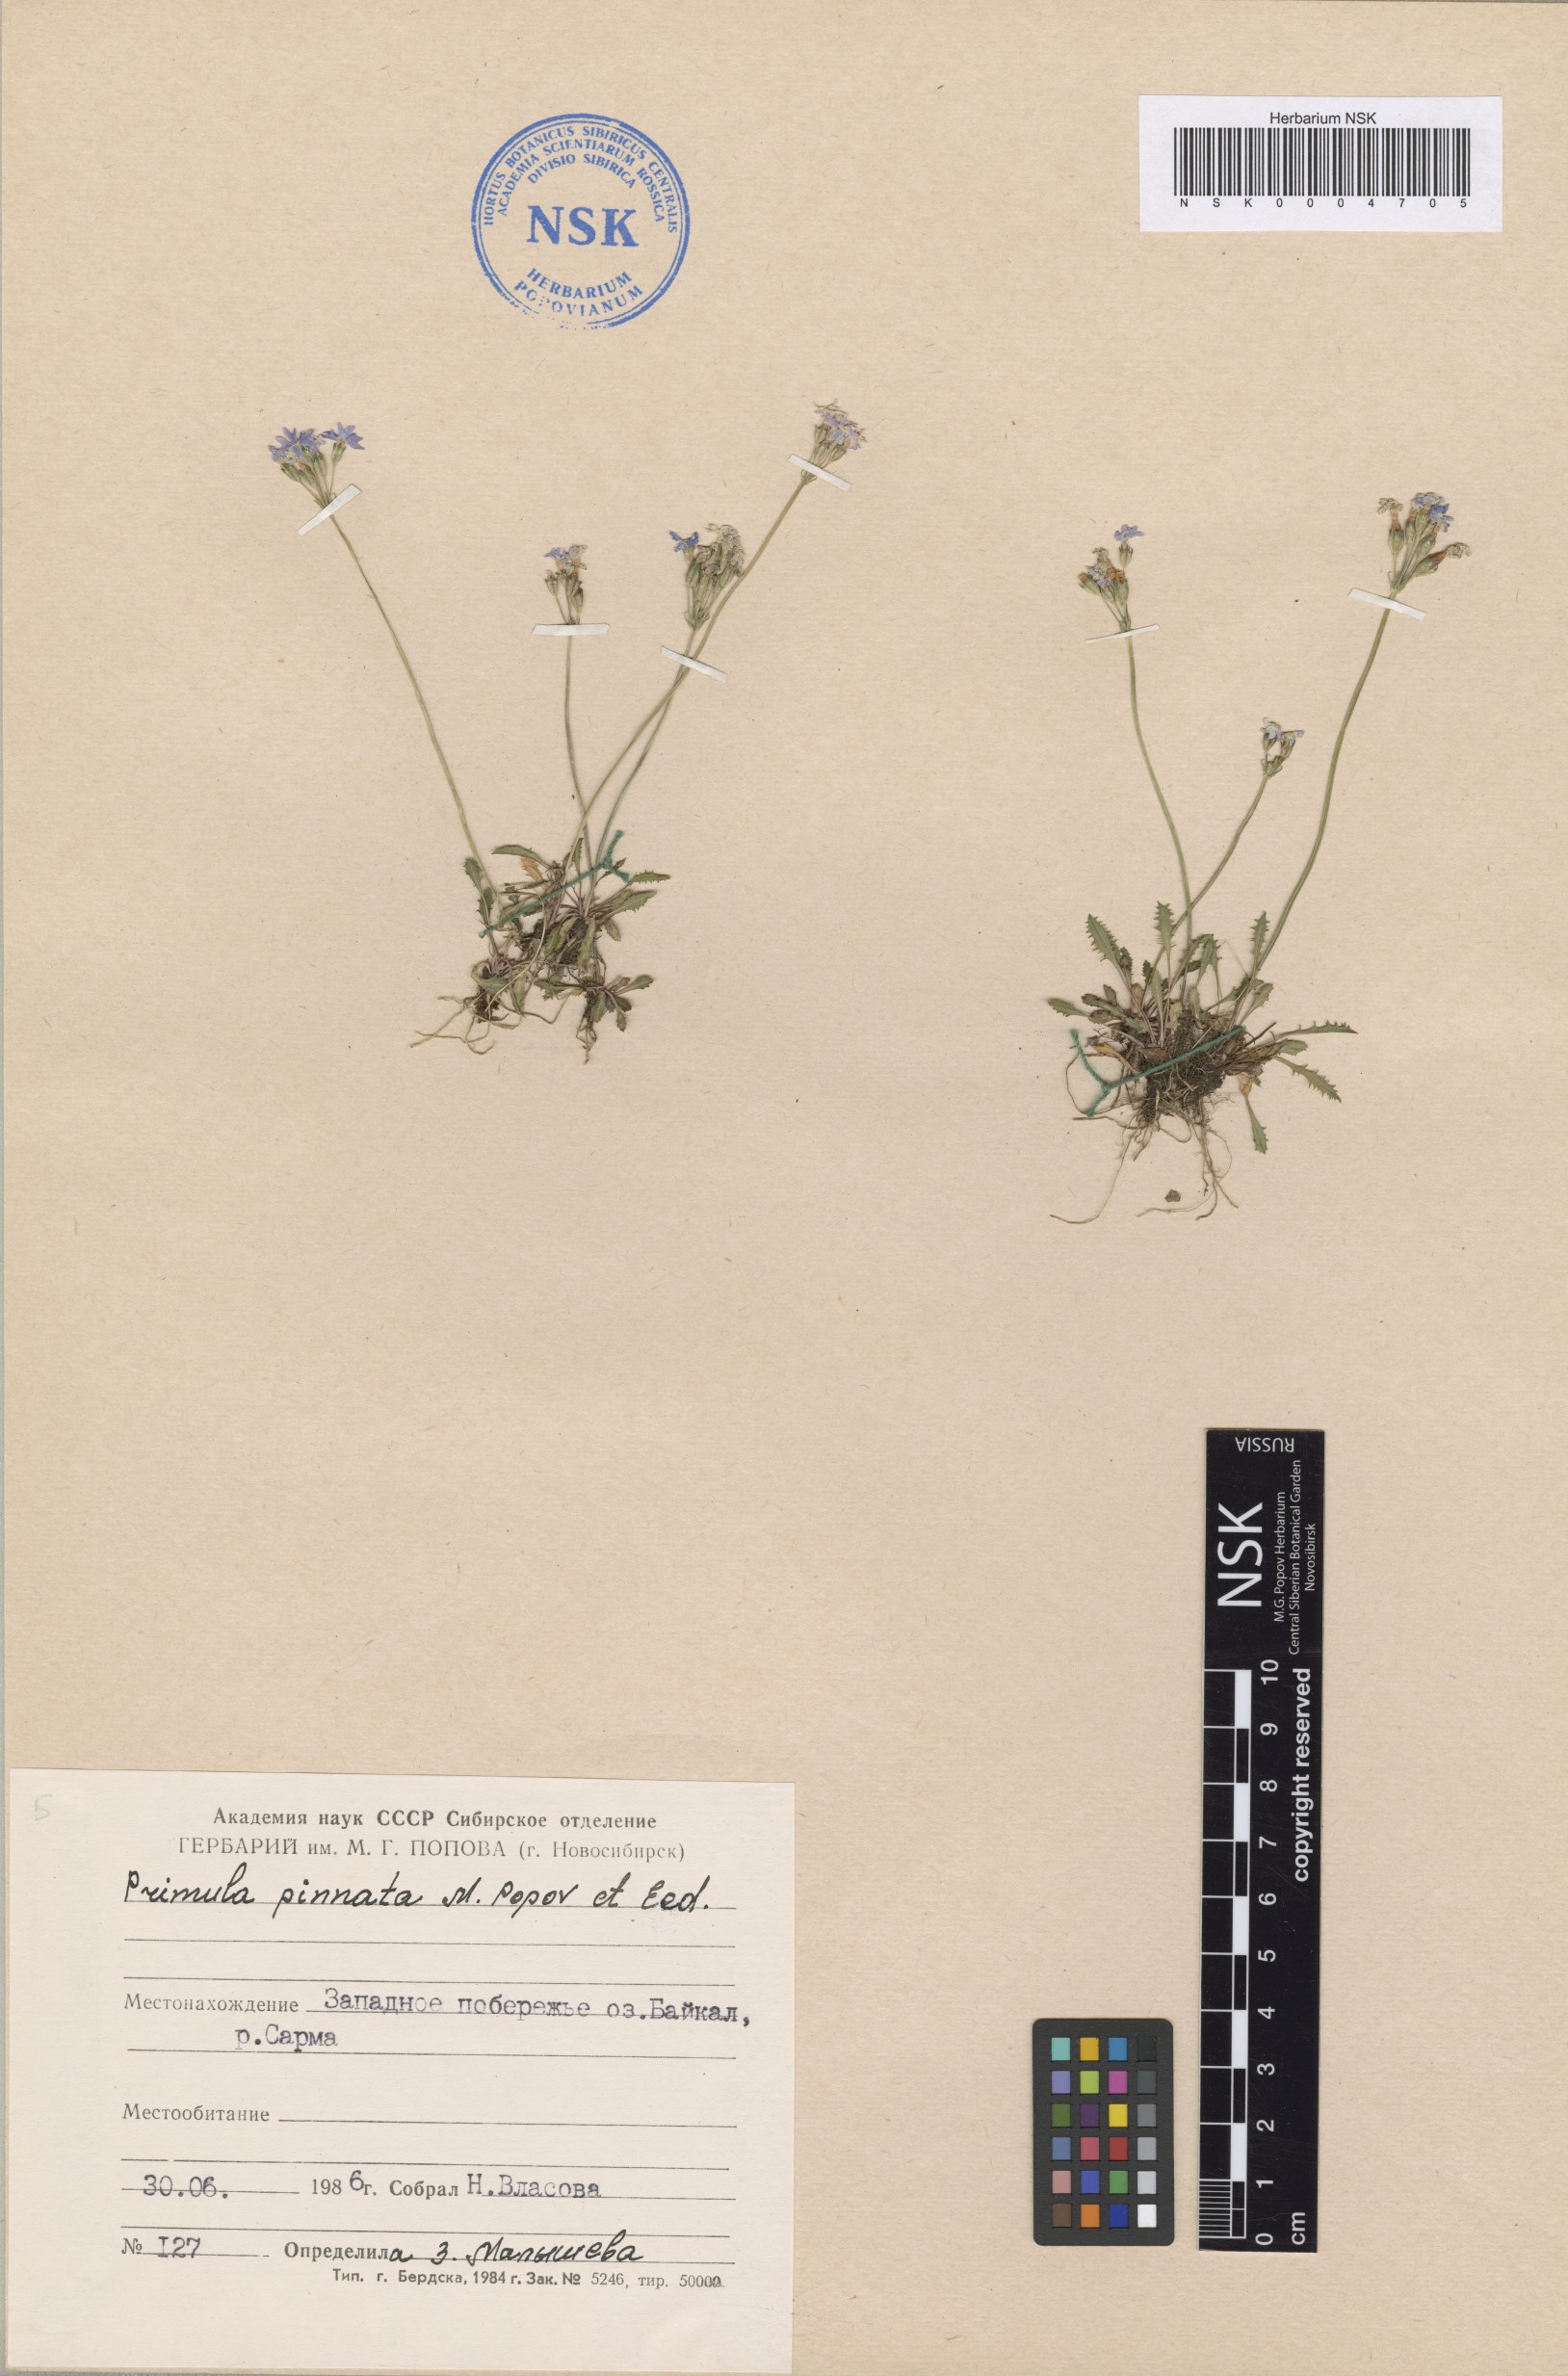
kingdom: Plantae
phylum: Tracheophyta
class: Magnoliopsida
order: Ericales
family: Primulaceae
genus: Primula
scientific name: Primula pinnata
